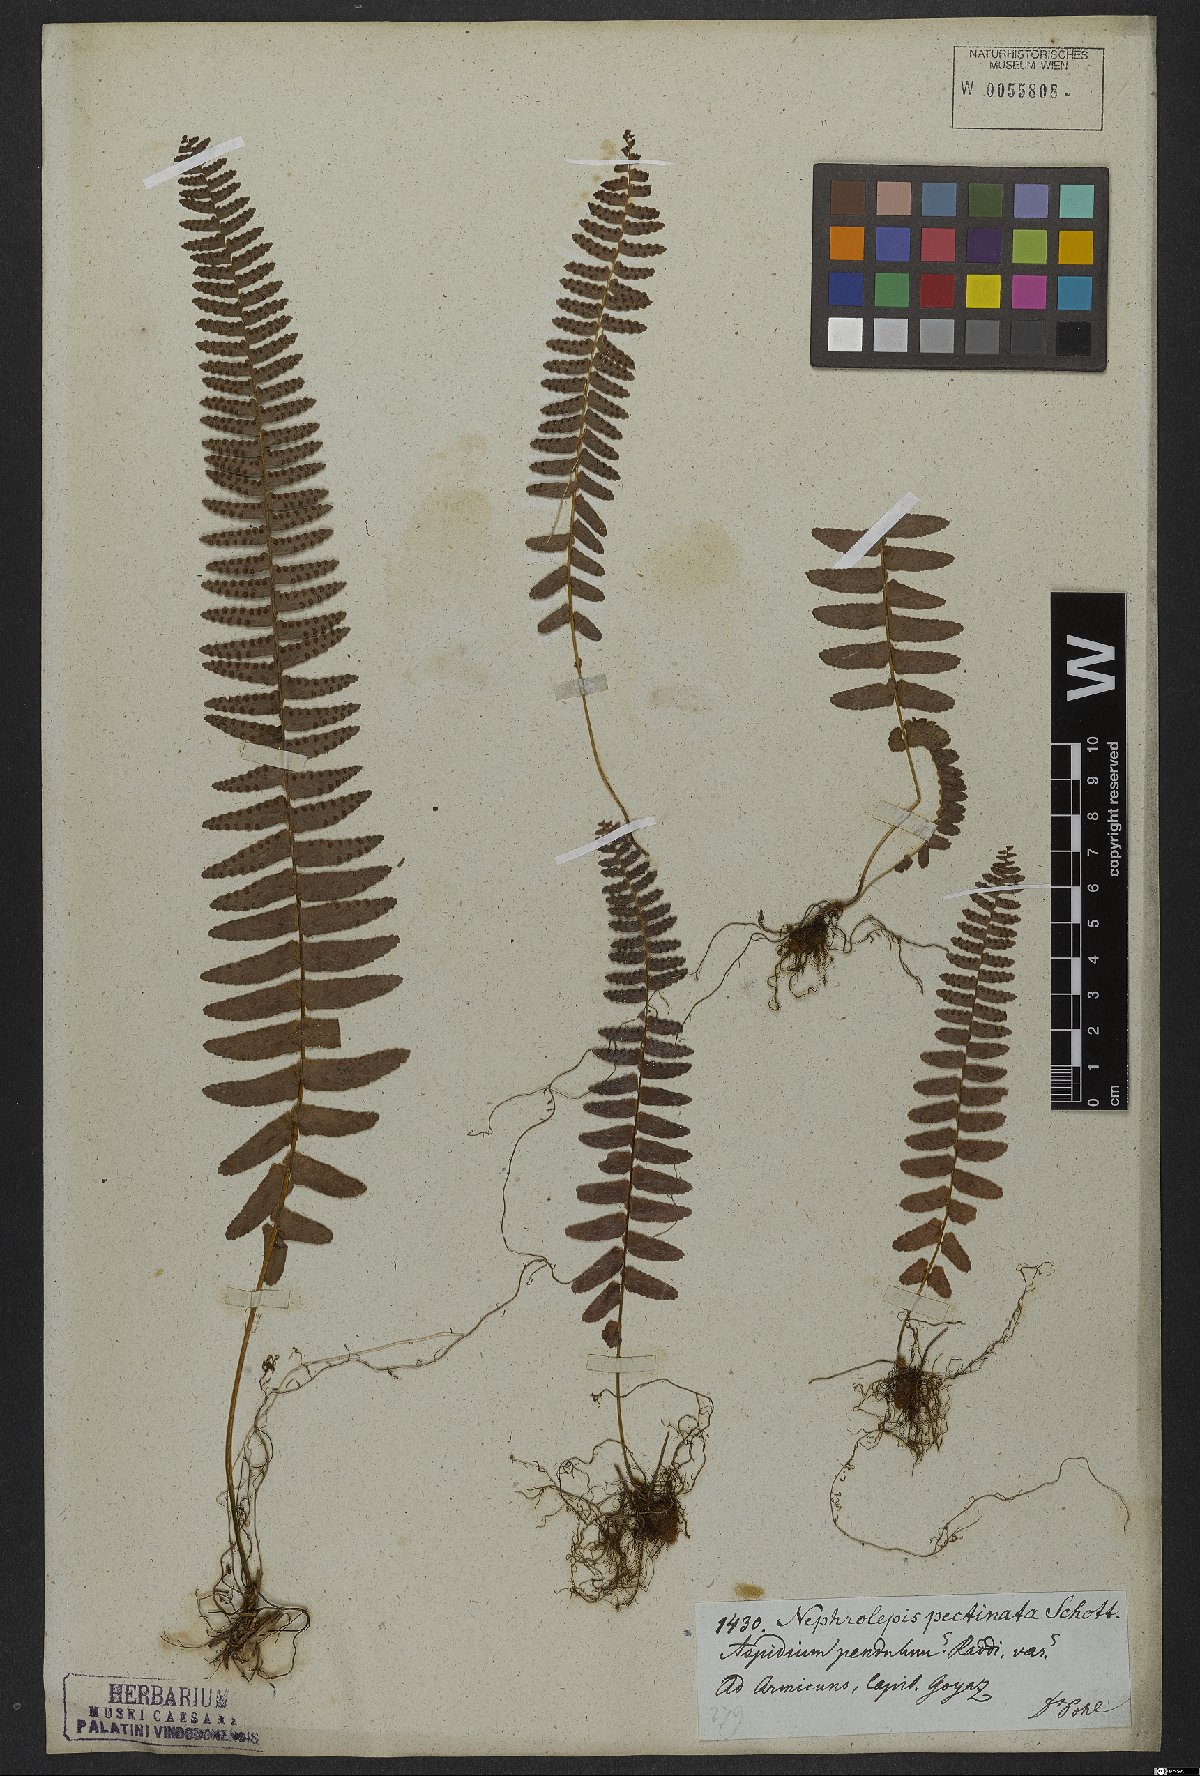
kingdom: Plantae
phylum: Tracheophyta
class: Polypodiopsida
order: Polypodiales
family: Nephrolepidaceae
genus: Nephrolepis
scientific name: Nephrolepis pectinata
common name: Basket fern
